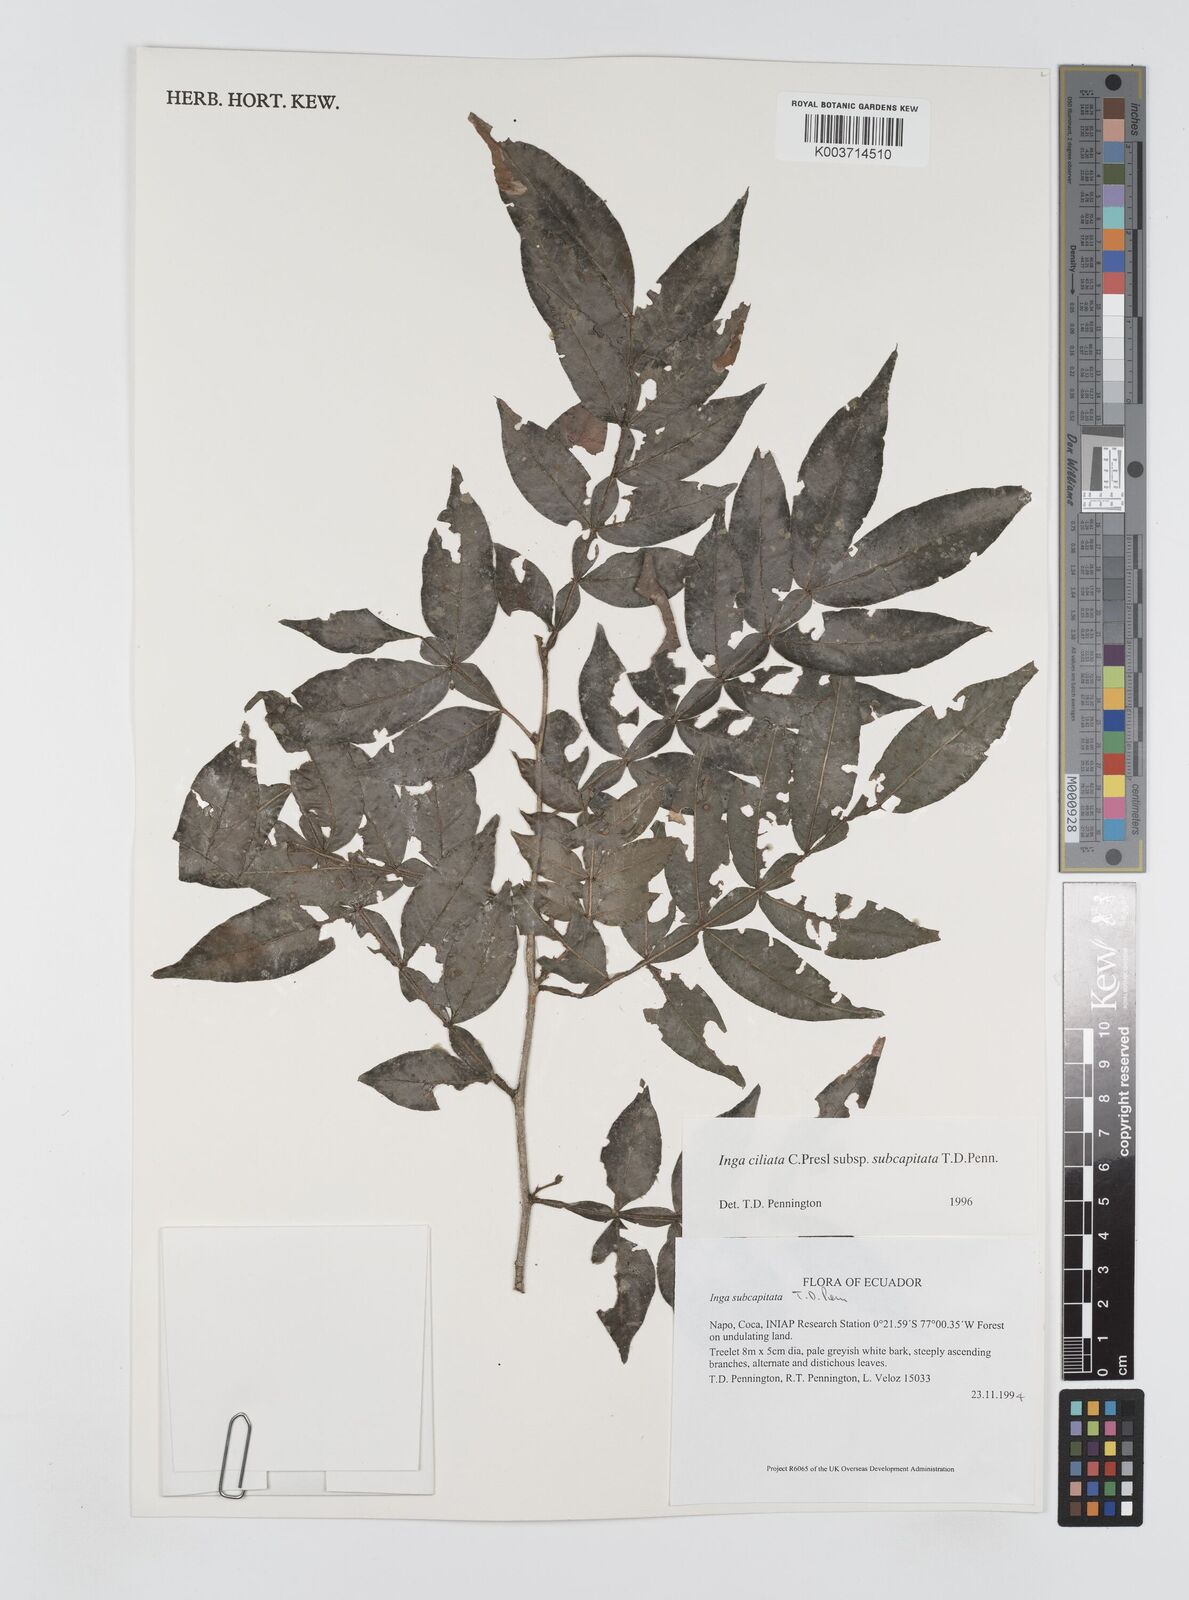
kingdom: Plantae
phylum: Tracheophyta
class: Magnoliopsida
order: Fabales
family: Fabaceae
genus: Inga
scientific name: Inga ciliata
